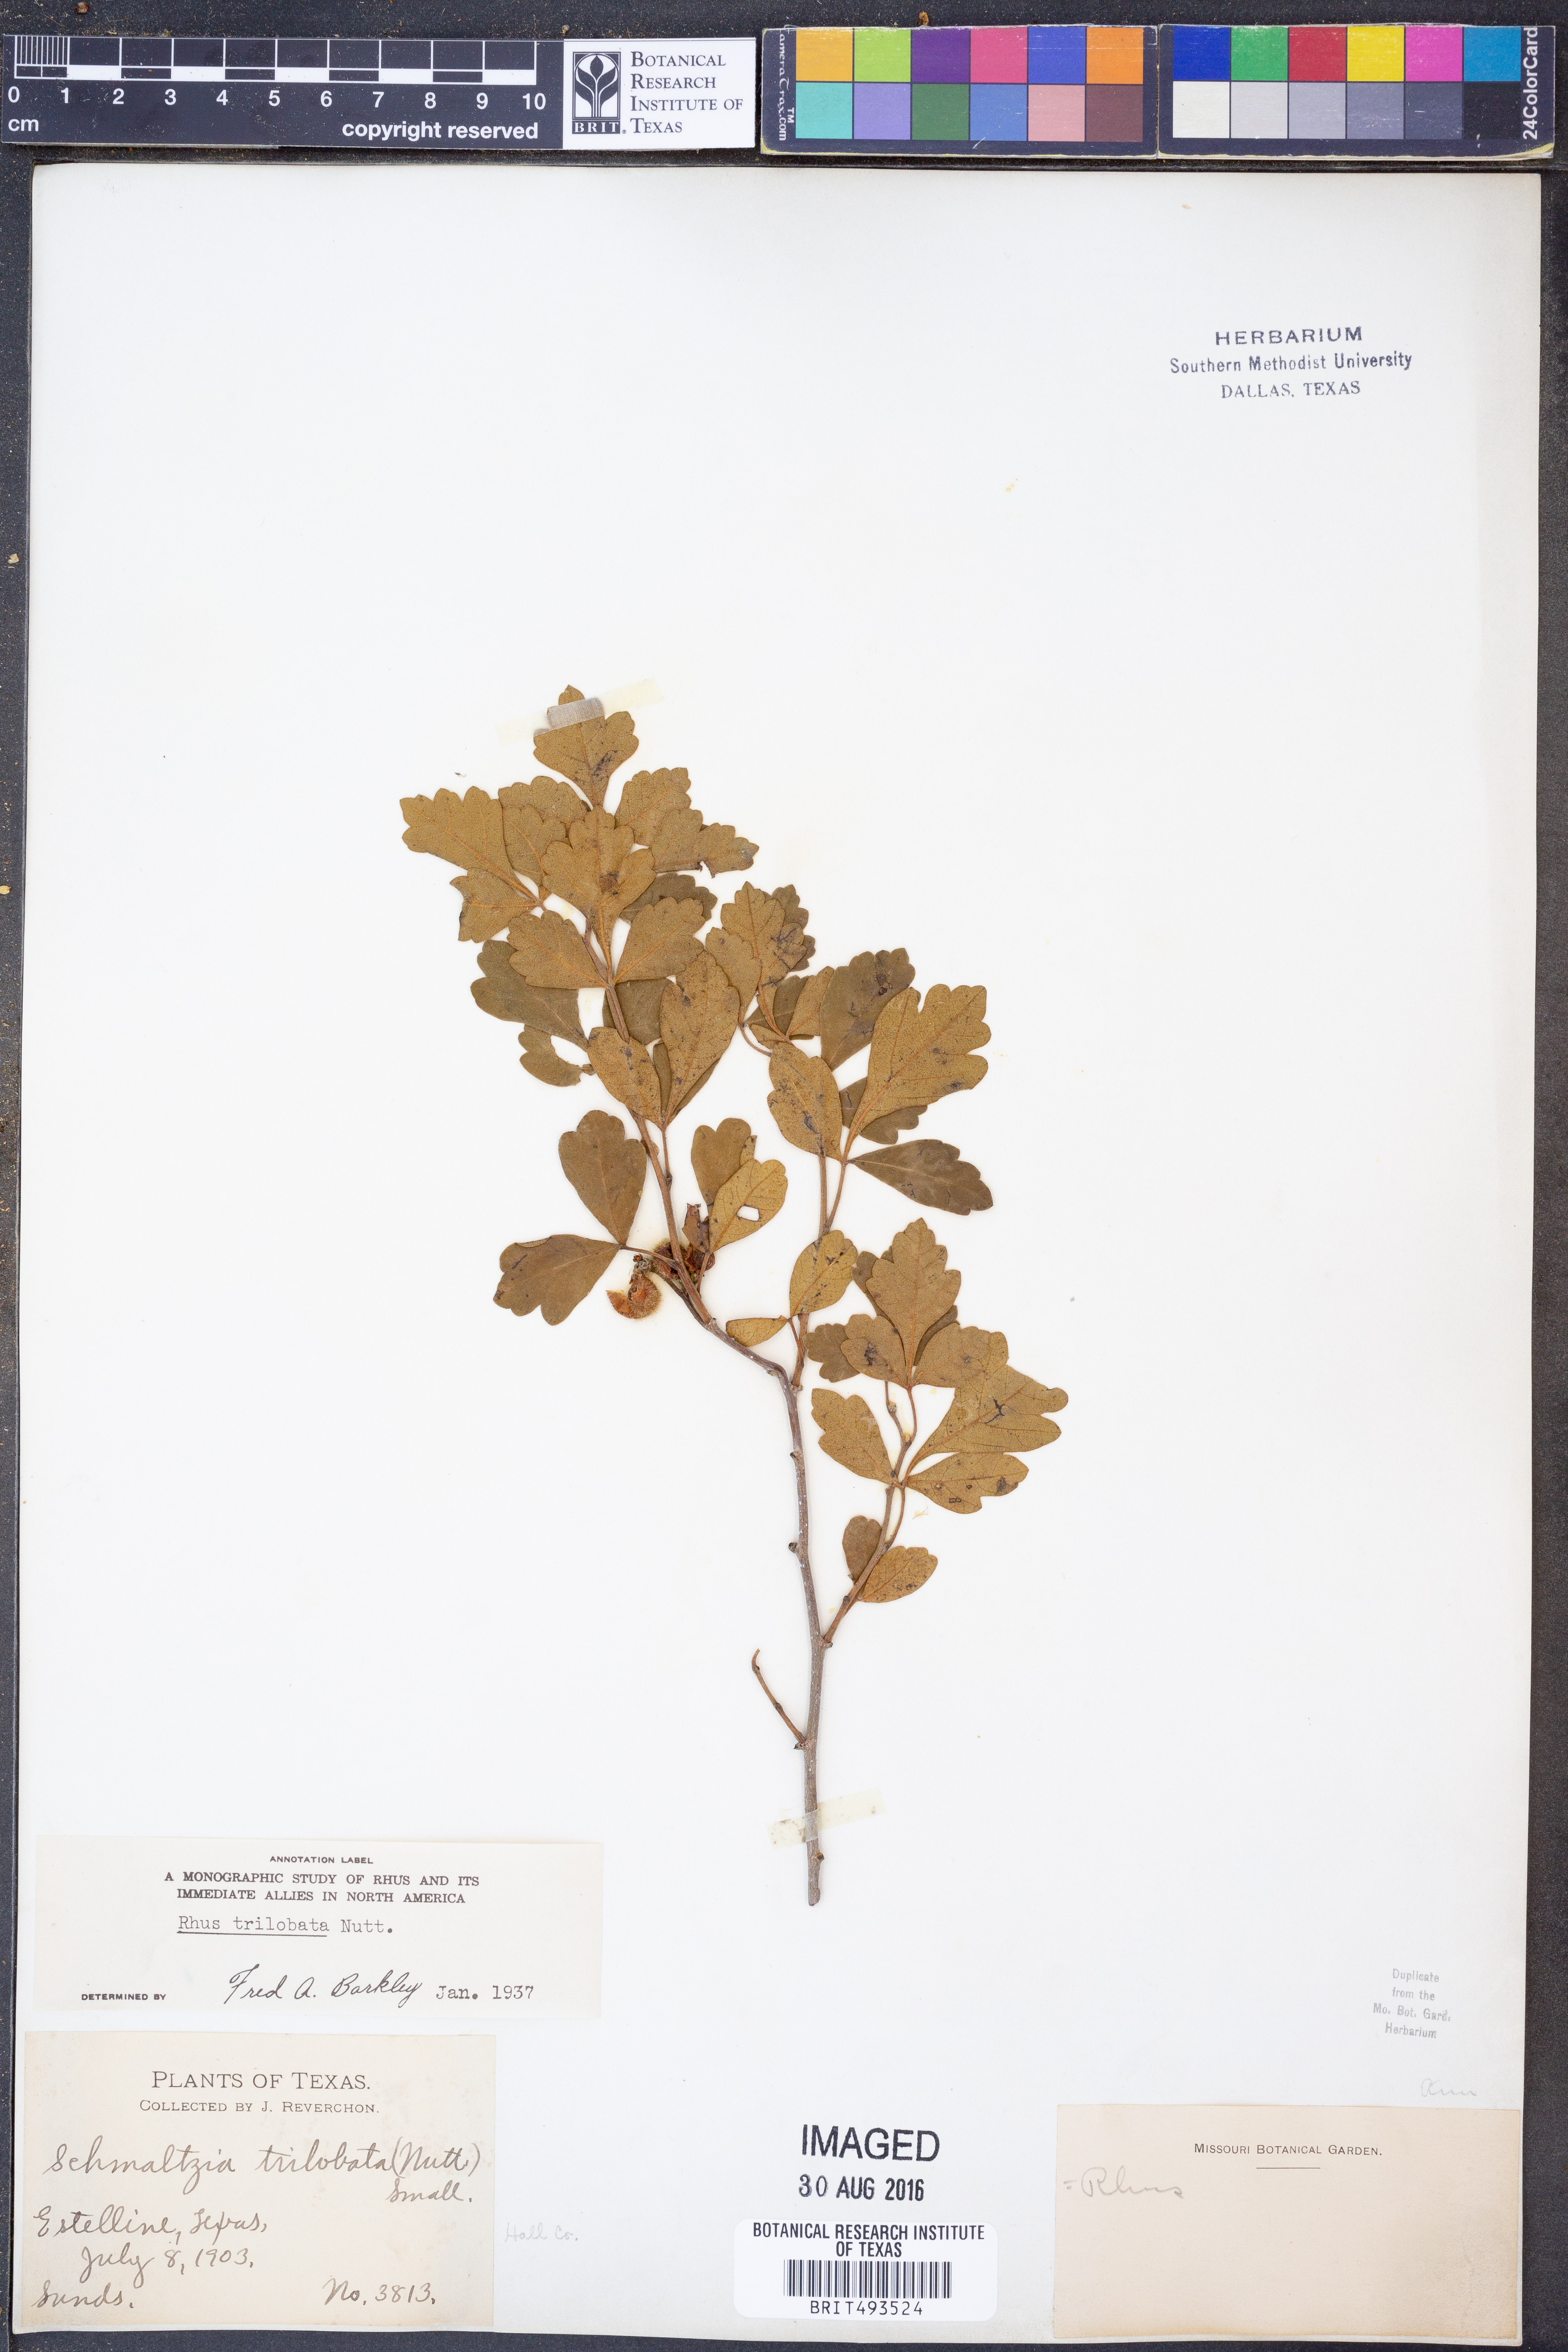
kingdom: Plantae
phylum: Tracheophyta
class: Magnoliopsida
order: Sapindales
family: Anacardiaceae
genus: Rhus
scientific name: Rhus trilobata
